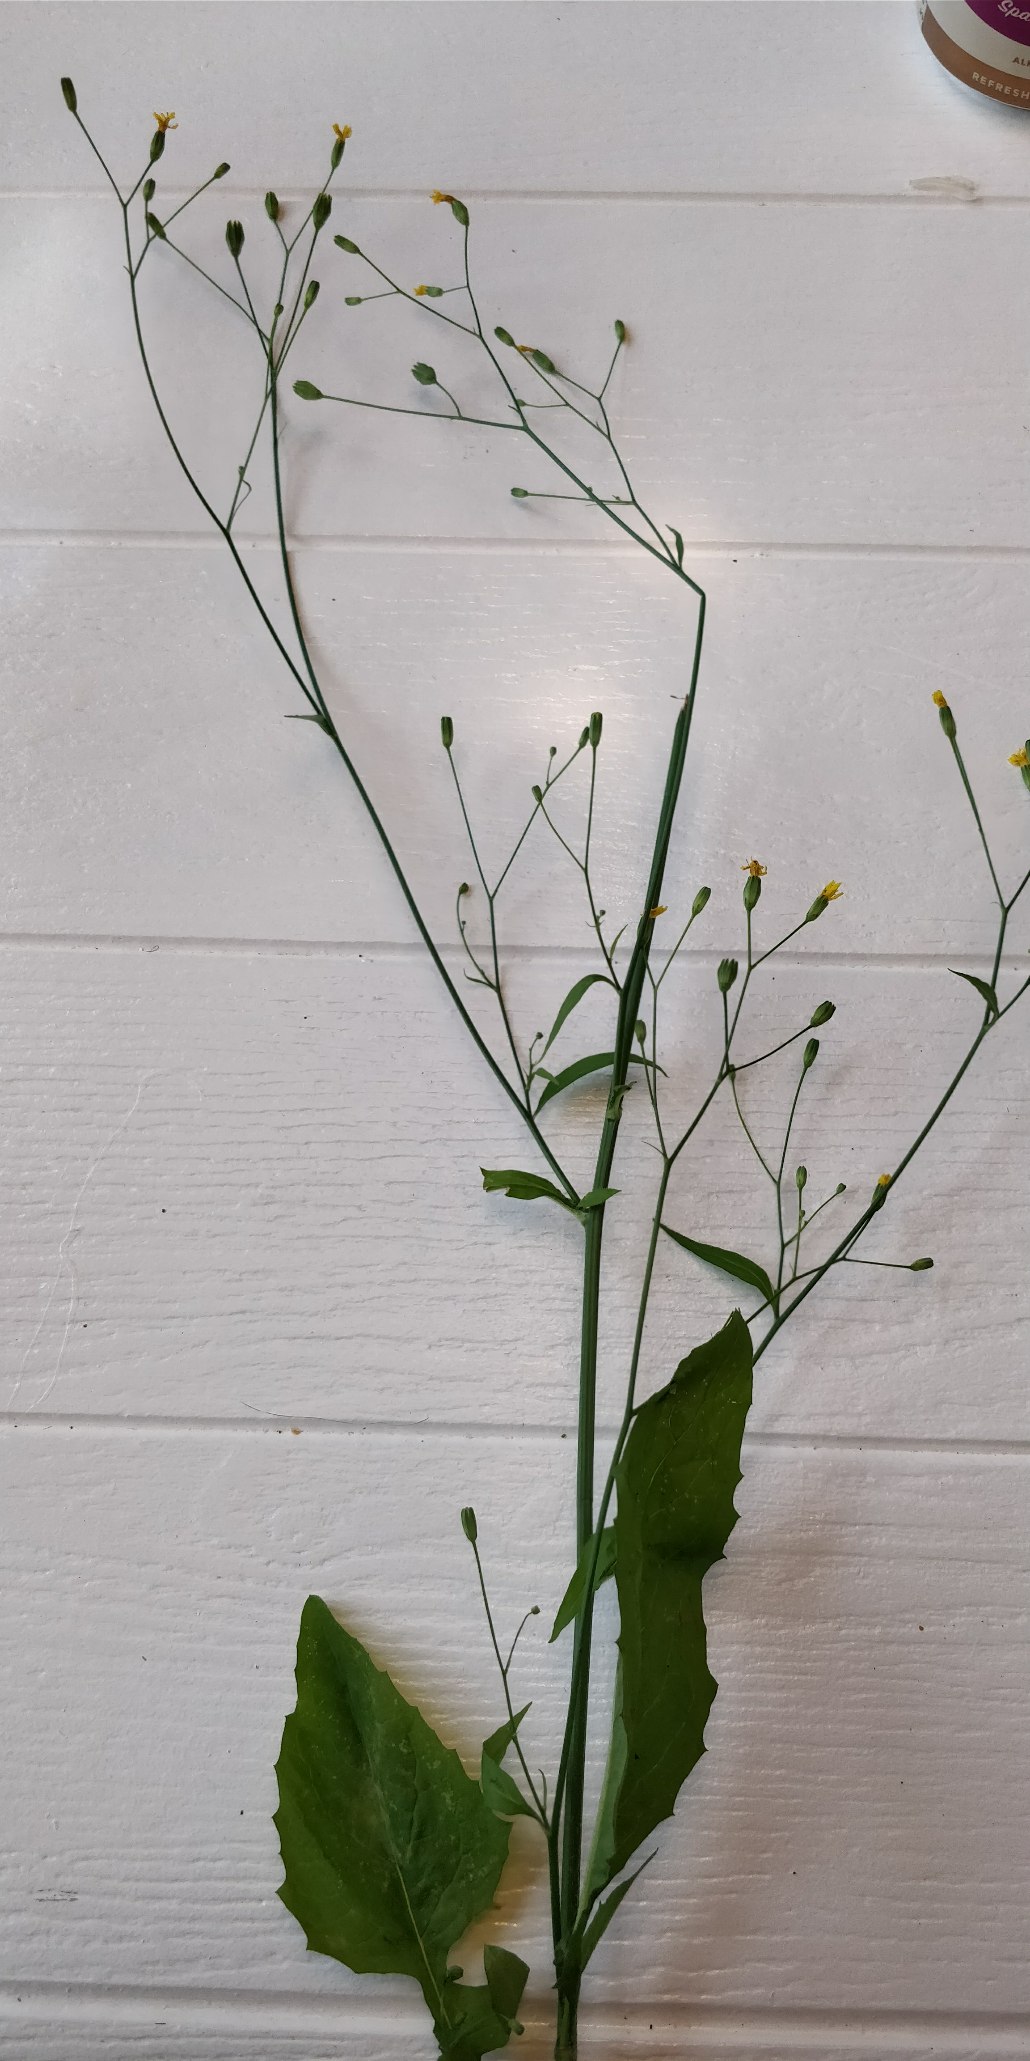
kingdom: Plantae
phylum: Tracheophyta
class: Magnoliopsida
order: Asterales
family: Asteraceae
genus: Lapsana
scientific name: Lapsana communis
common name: Haremad
